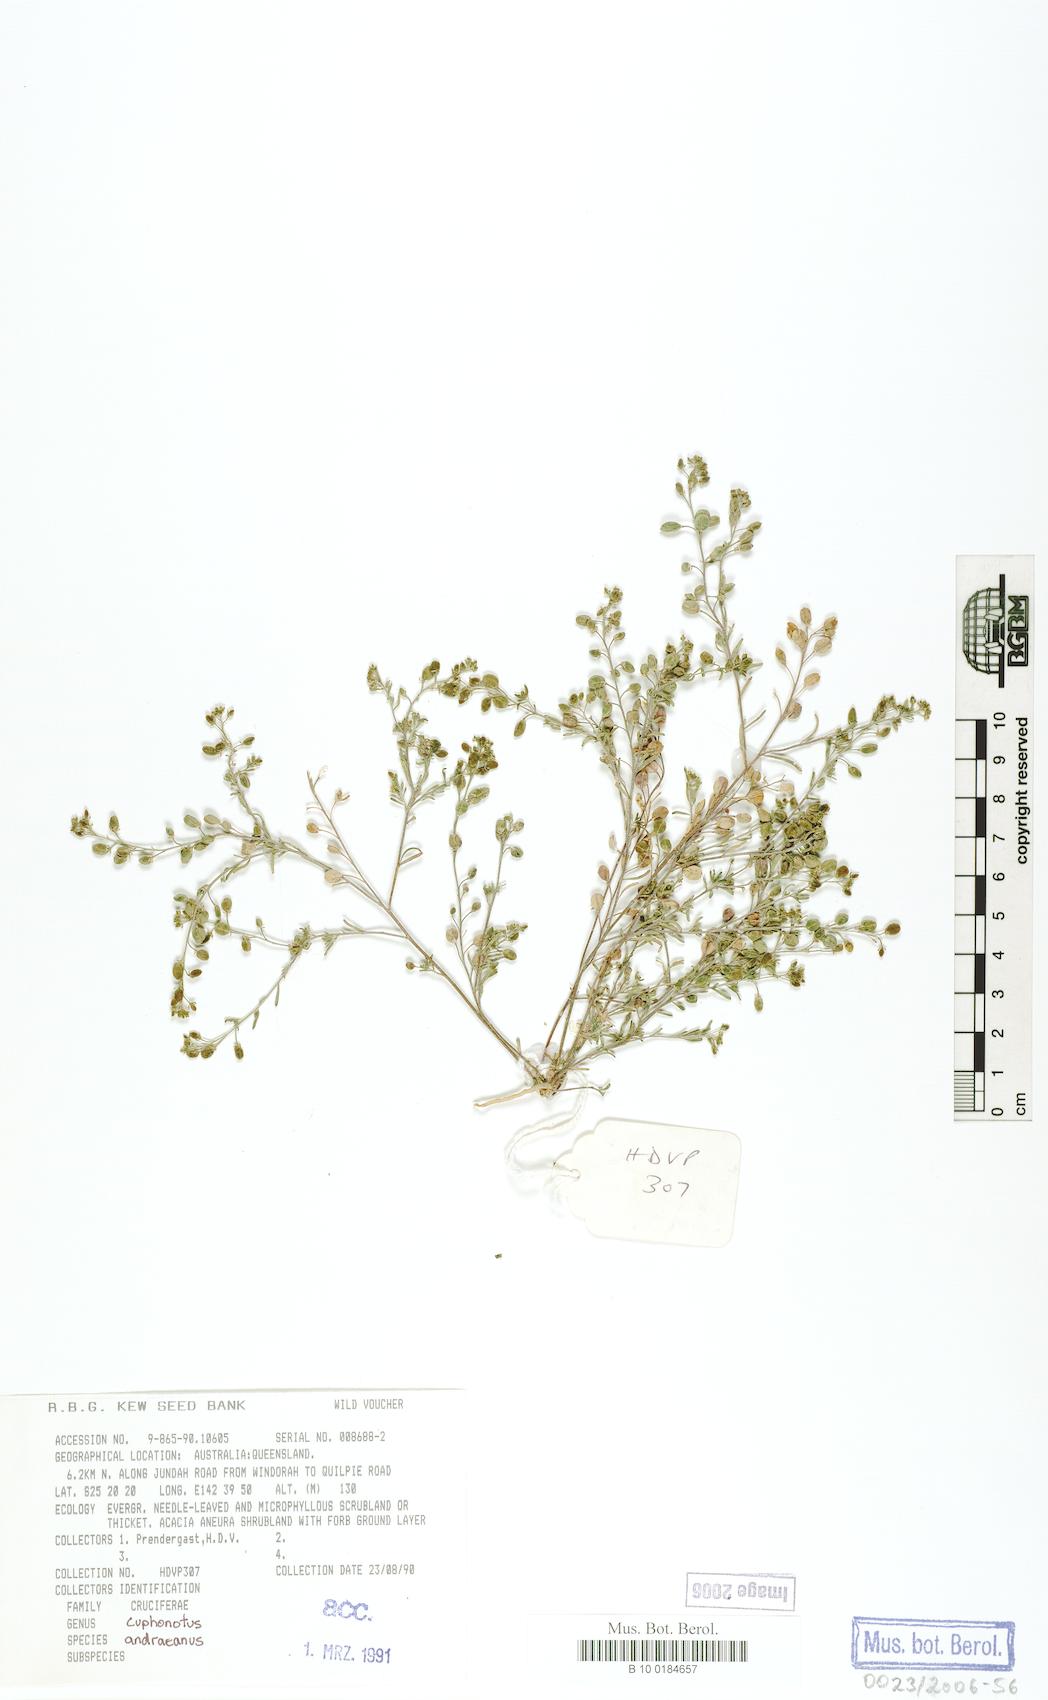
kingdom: Plantae
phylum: Tracheophyta
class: Magnoliopsida
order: Brassicales
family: Brassicaceae
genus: Cuphonotus
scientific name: Cuphonotus andraeanus
